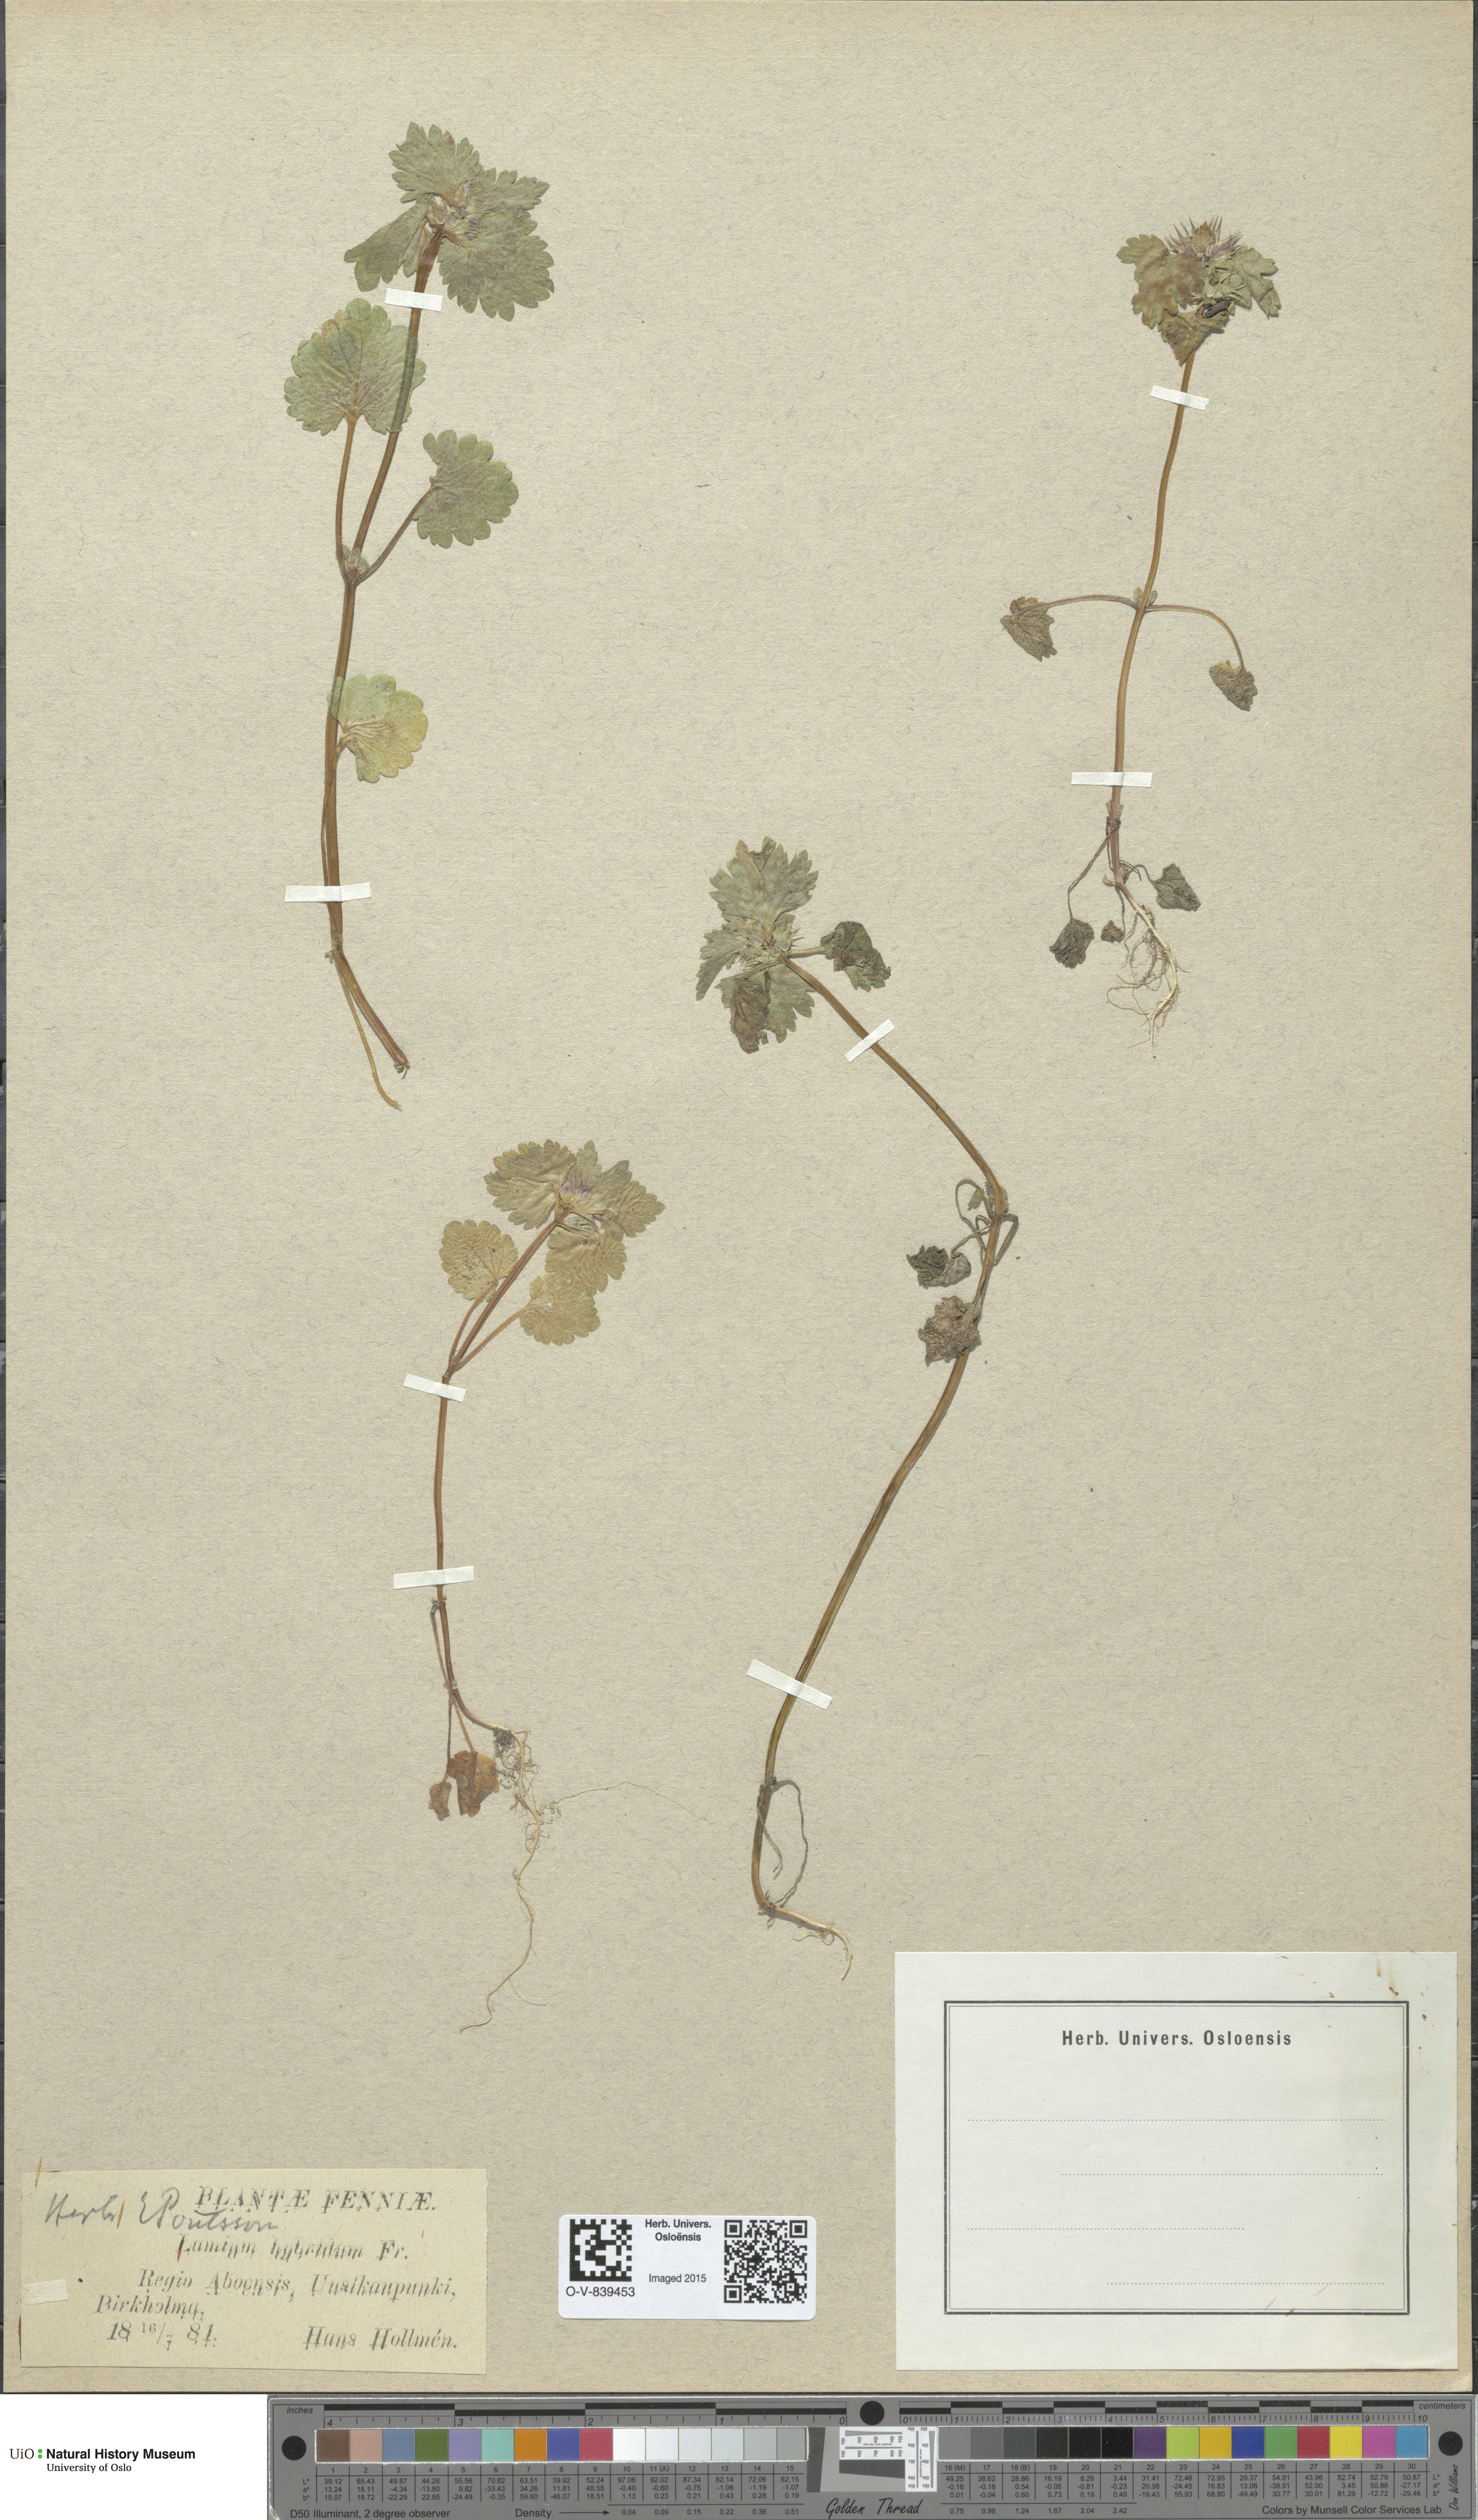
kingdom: Plantae
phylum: Tracheophyta
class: Magnoliopsida
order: Lamiales
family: Lamiaceae
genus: Lamium
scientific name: Lamium hybridum
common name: Cut-leaved dead-nettle
